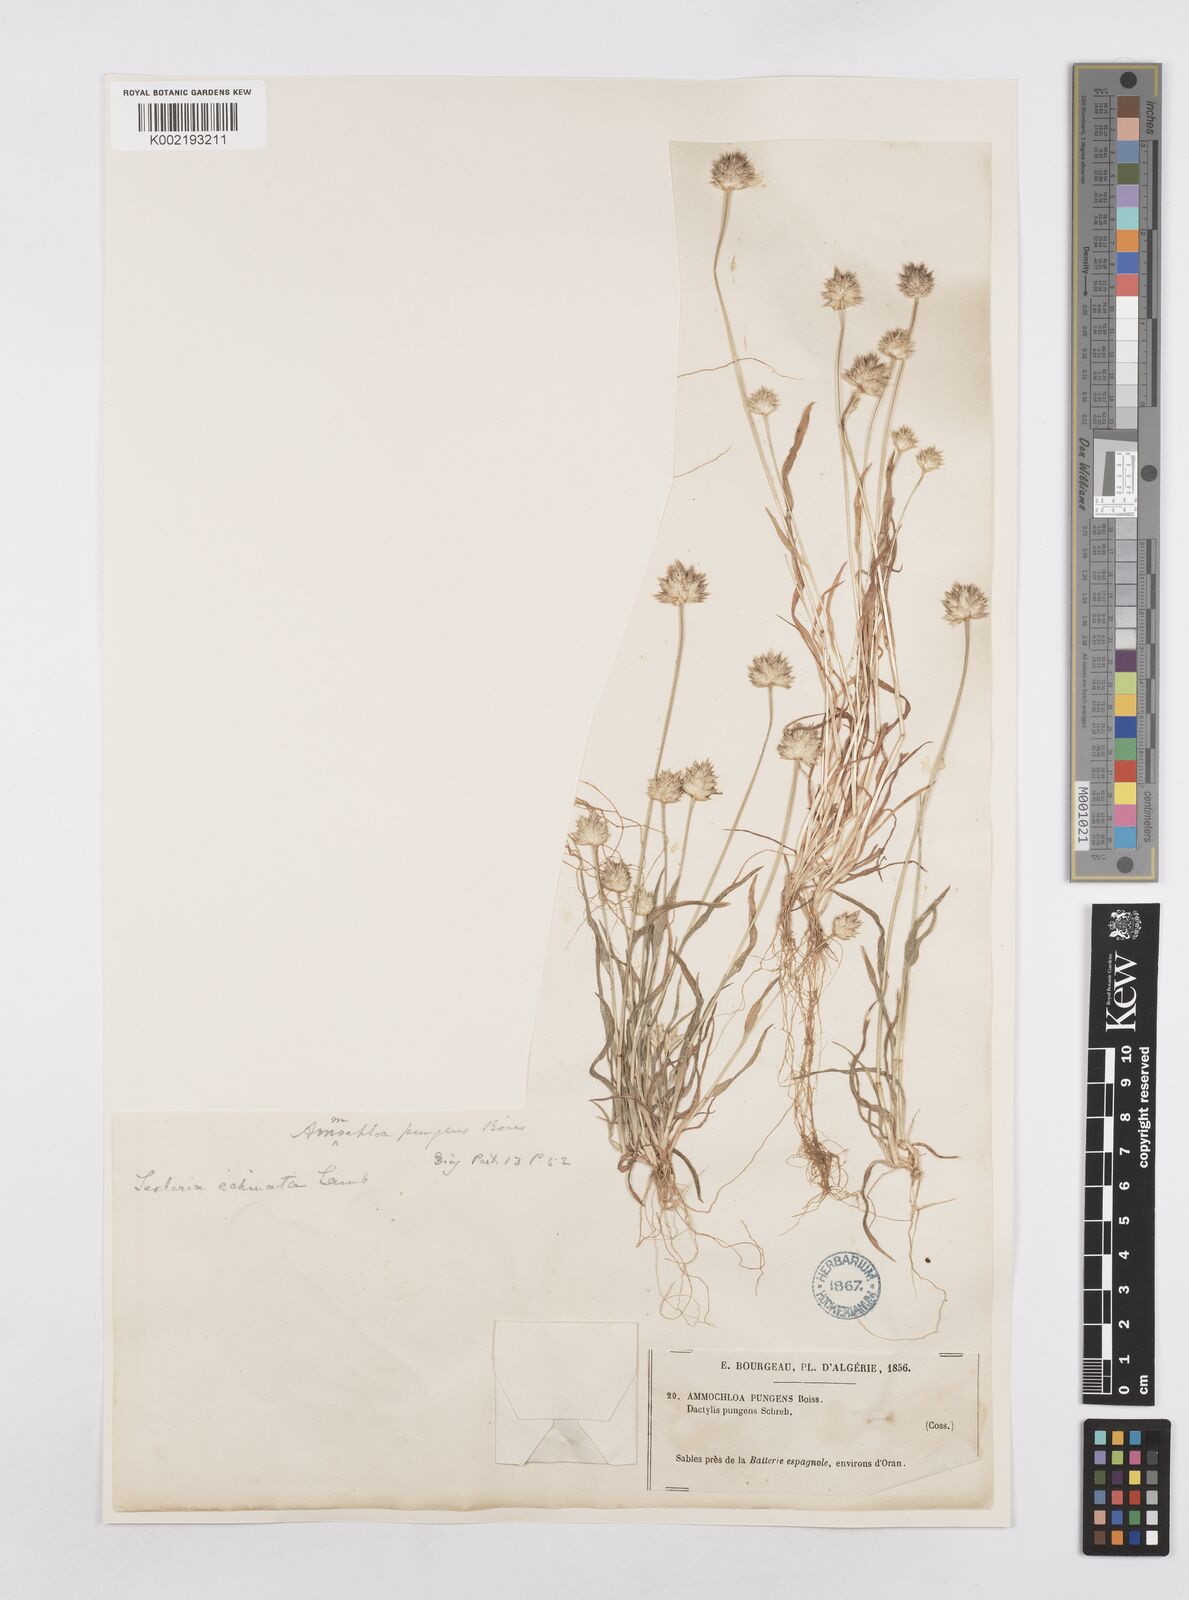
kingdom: Plantae
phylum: Tracheophyta
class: Liliopsida
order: Poales
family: Poaceae
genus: Ammochloa
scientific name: Ammochloa pungens
